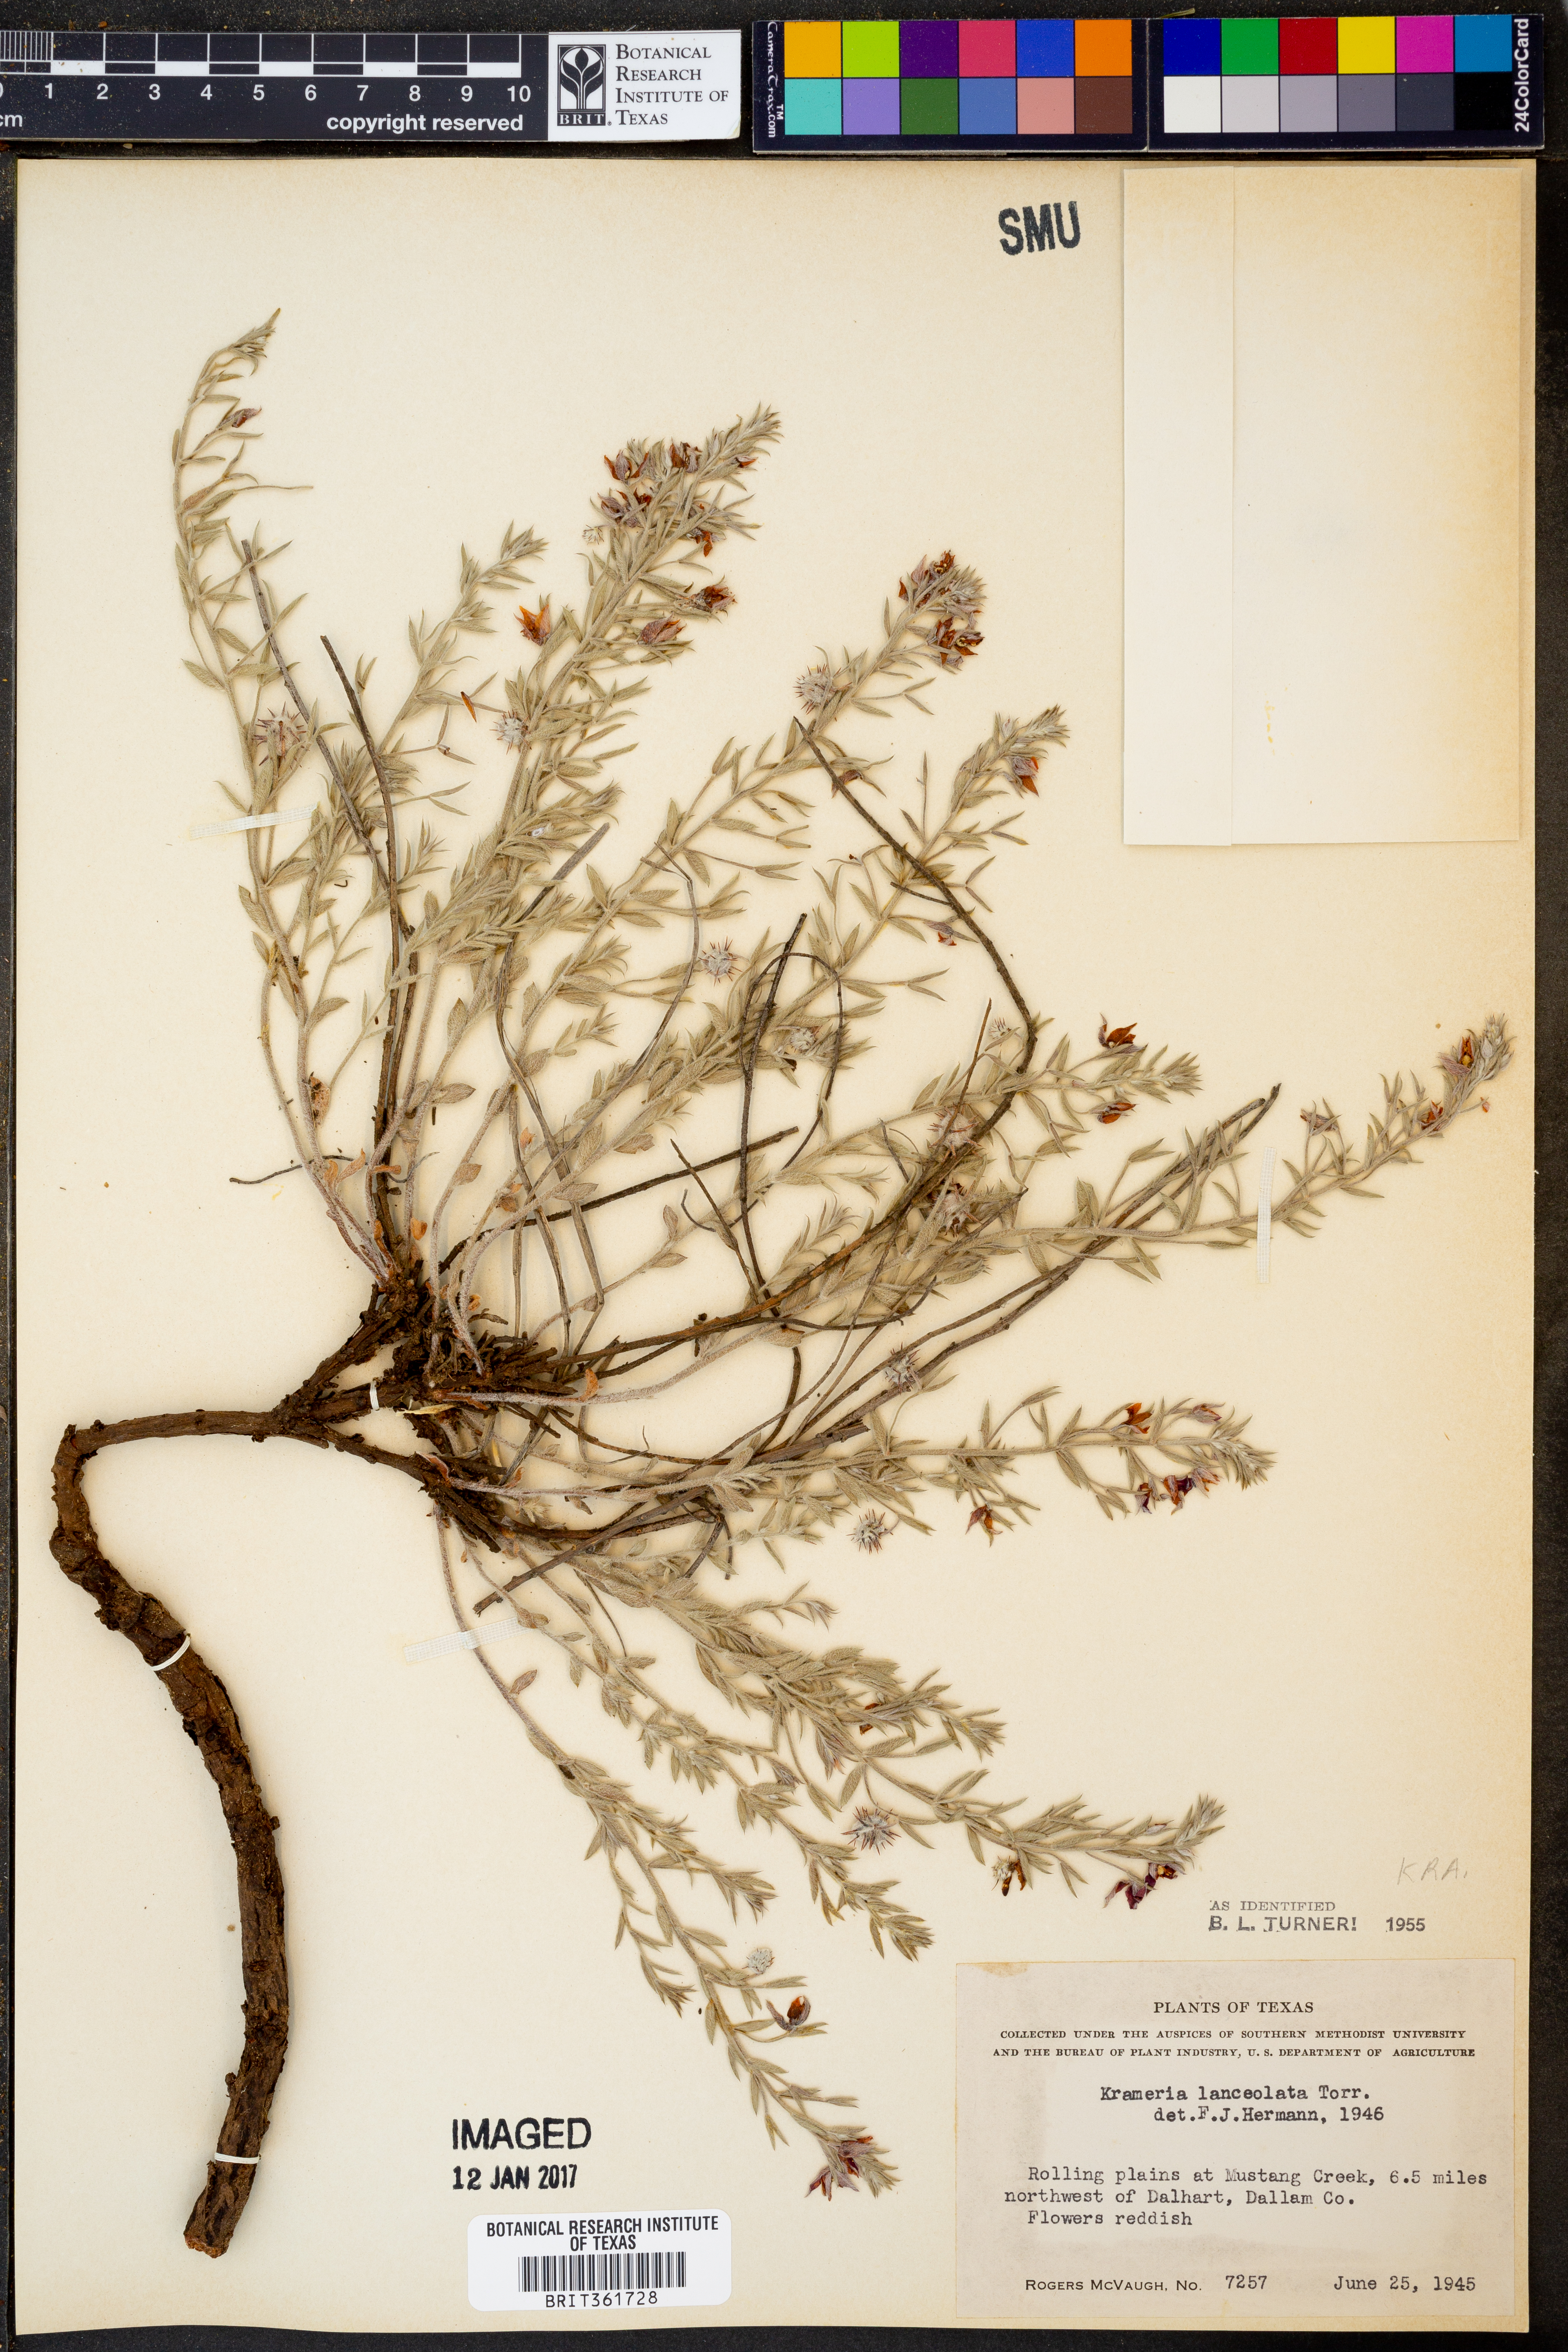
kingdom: Plantae
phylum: Tracheophyta
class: Magnoliopsida
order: Zygophyllales
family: Krameriaceae
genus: Krameria
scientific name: Krameria lanceolata
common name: Ratany
